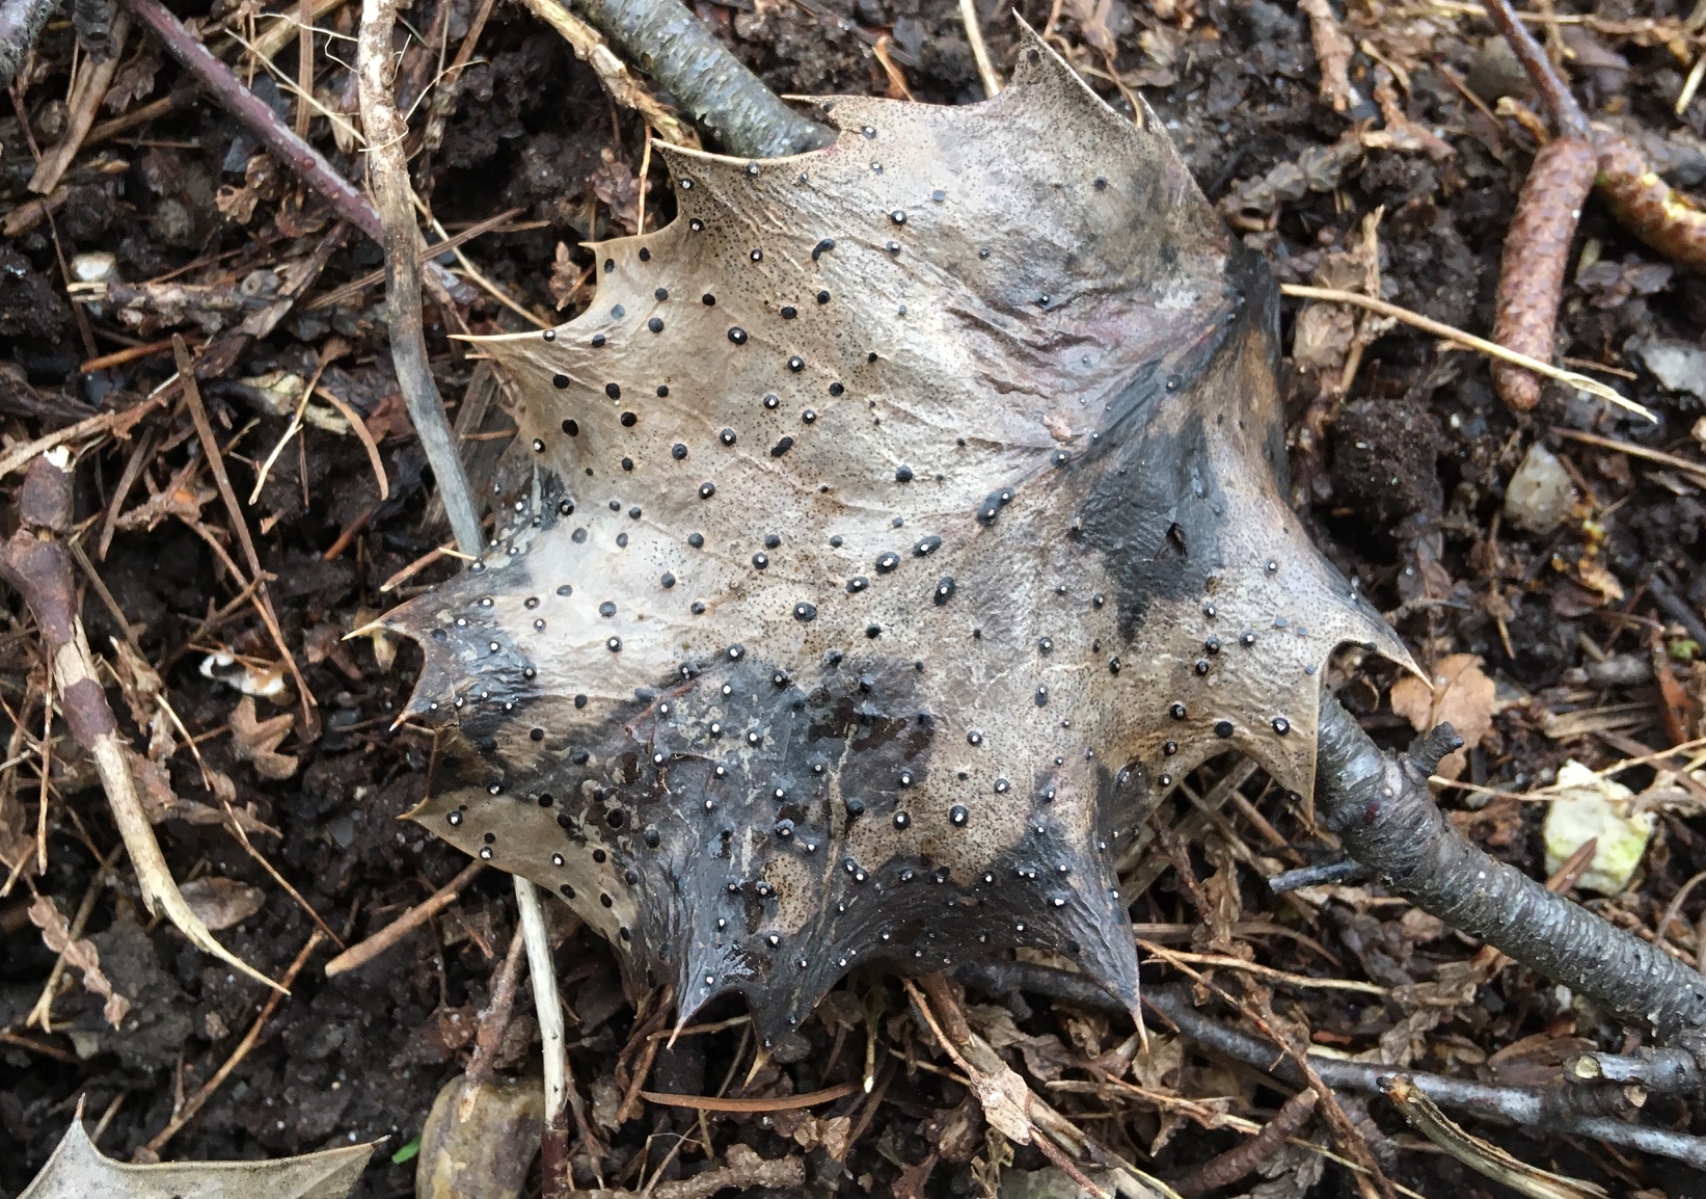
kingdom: Fungi
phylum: Ascomycota
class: Leotiomycetes
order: Phacidiales
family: Phacidiaceae
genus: Phacidium
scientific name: Phacidium lauri
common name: kristtorn-tandskive
